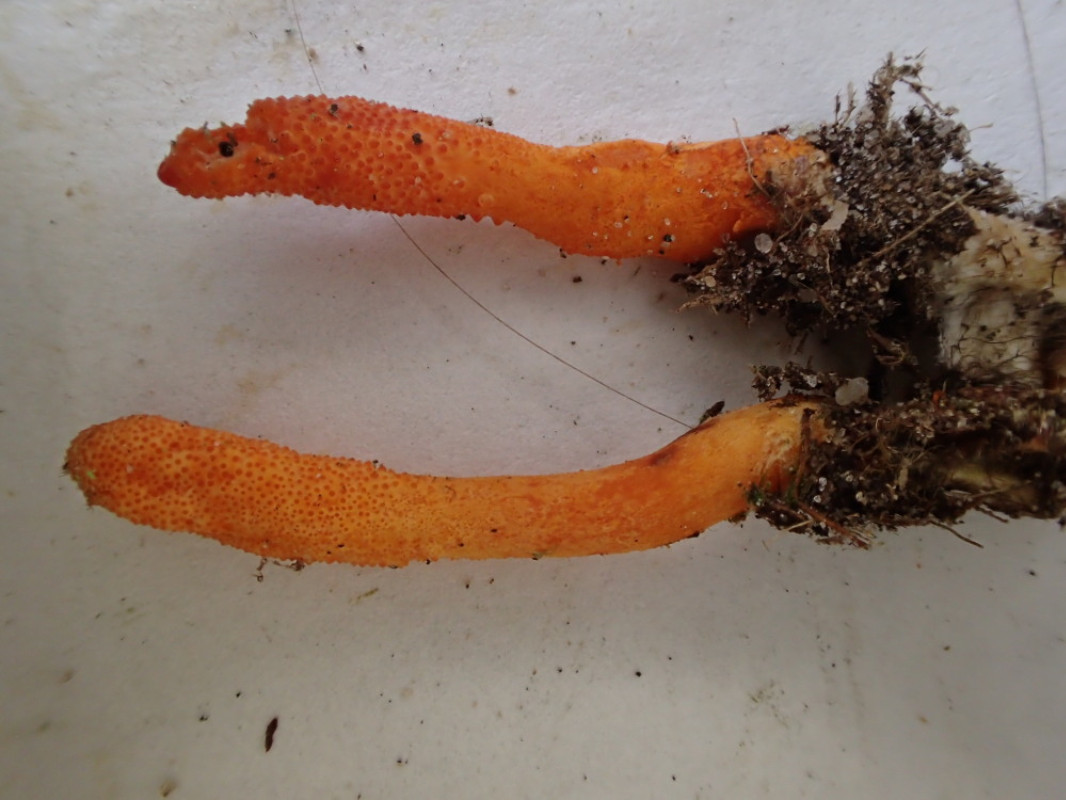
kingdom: Fungi
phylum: Ascomycota
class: Sordariomycetes
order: Hypocreales
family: Cordycipitaceae
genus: Cordyceps
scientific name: Cordyceps militaris
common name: puppe-snyltekølle
